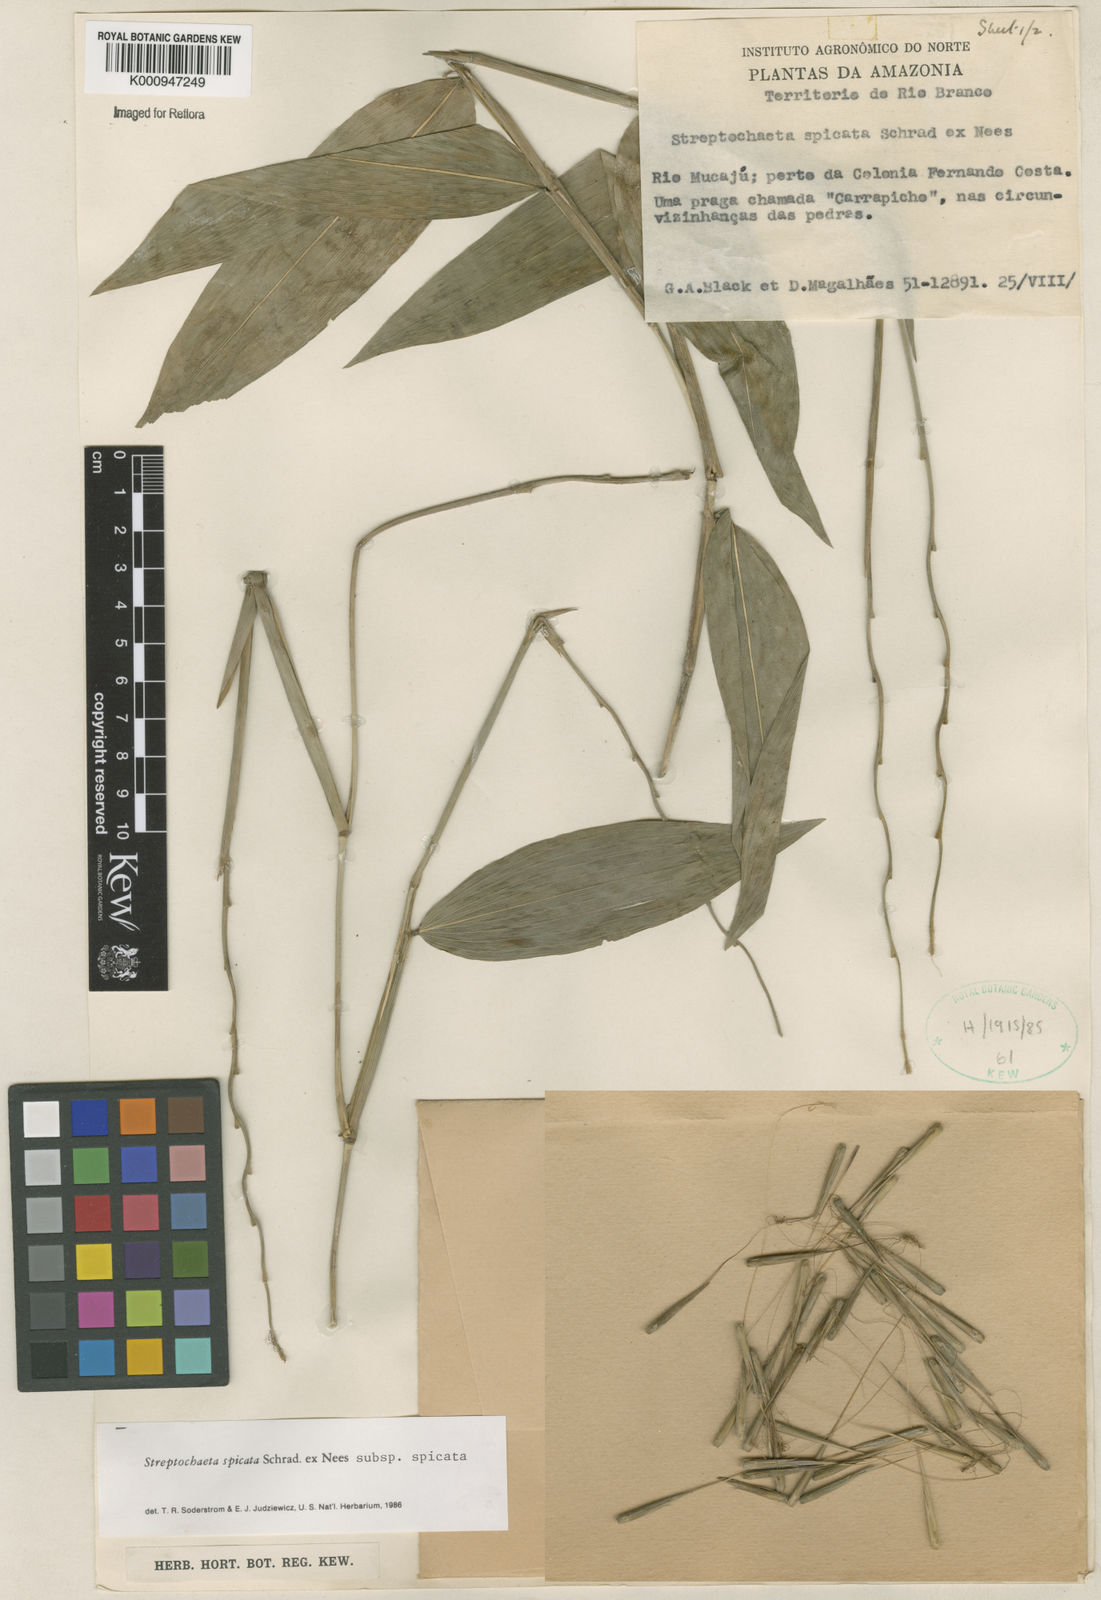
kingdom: Plantae
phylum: Tracheophyta
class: Liliopsida
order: Poales
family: Poaceae
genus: Streptochaeta
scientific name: Streptochaeta spicata
